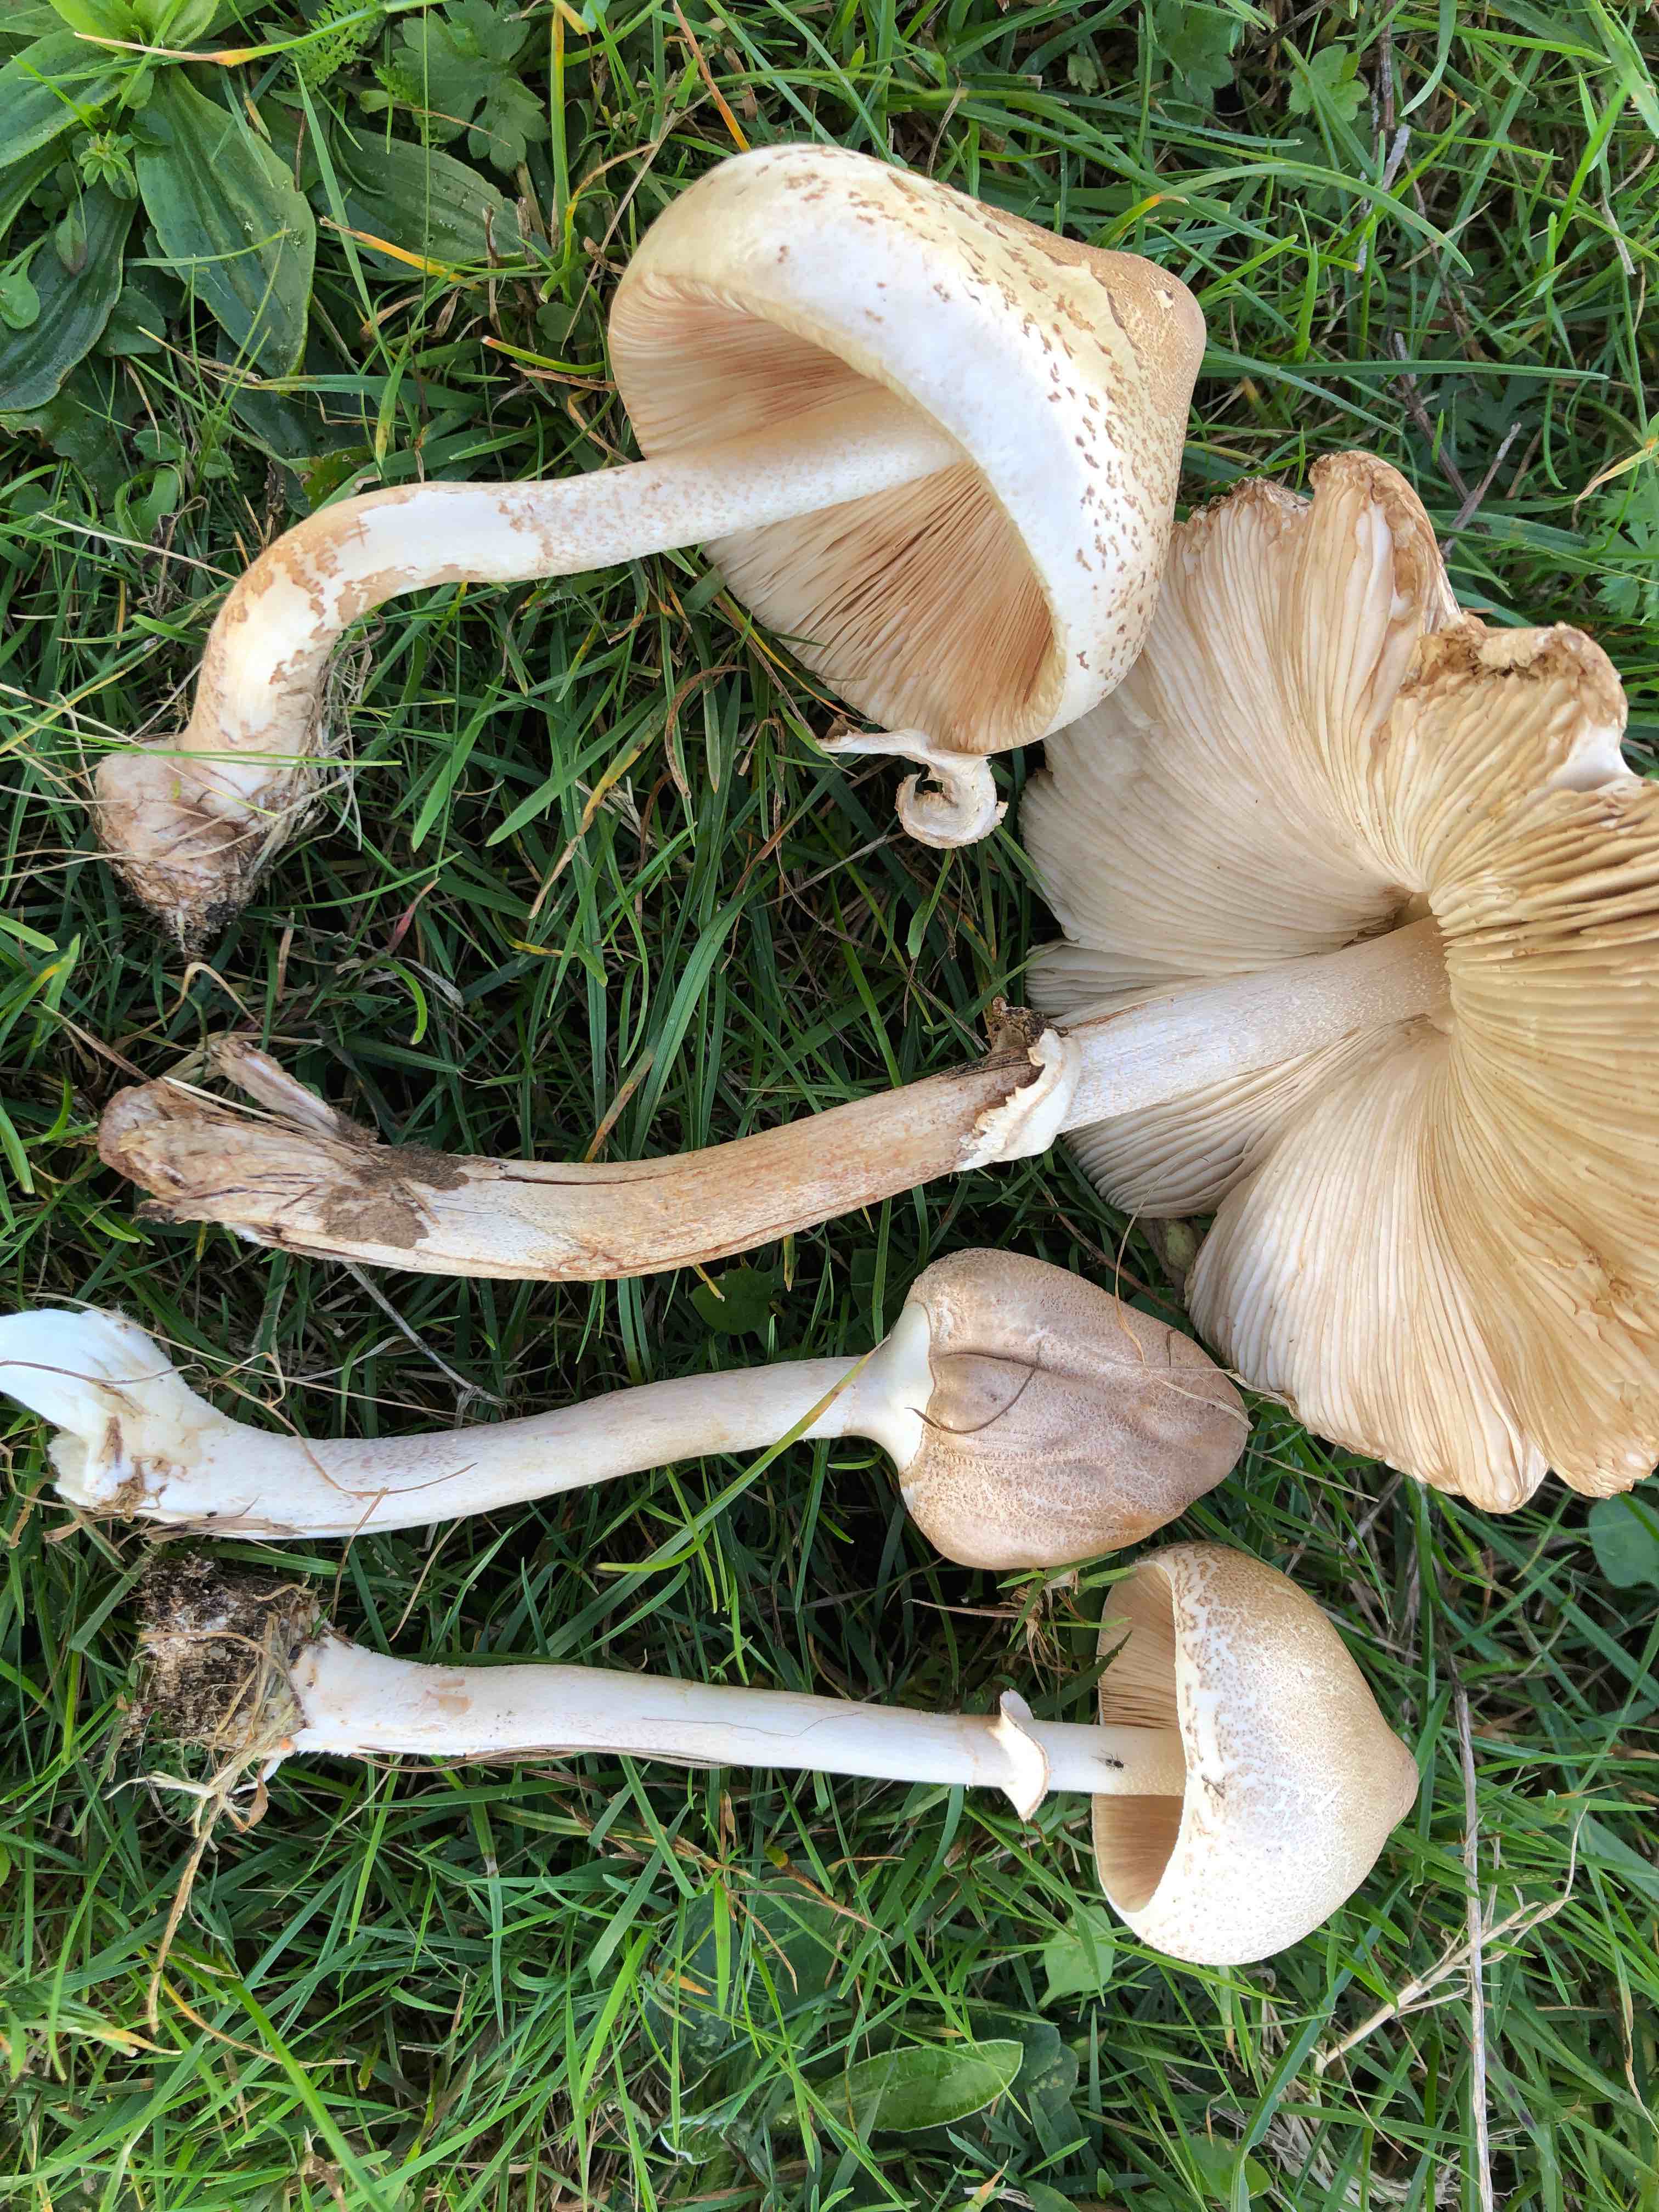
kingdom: Fungi
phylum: Basidiomycota
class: Agaricomycetes
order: Agaricales
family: Agaricaceae
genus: Macrolepiota
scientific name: Macrolepiota mastoidea
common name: puklet kæmpeparasolhat
